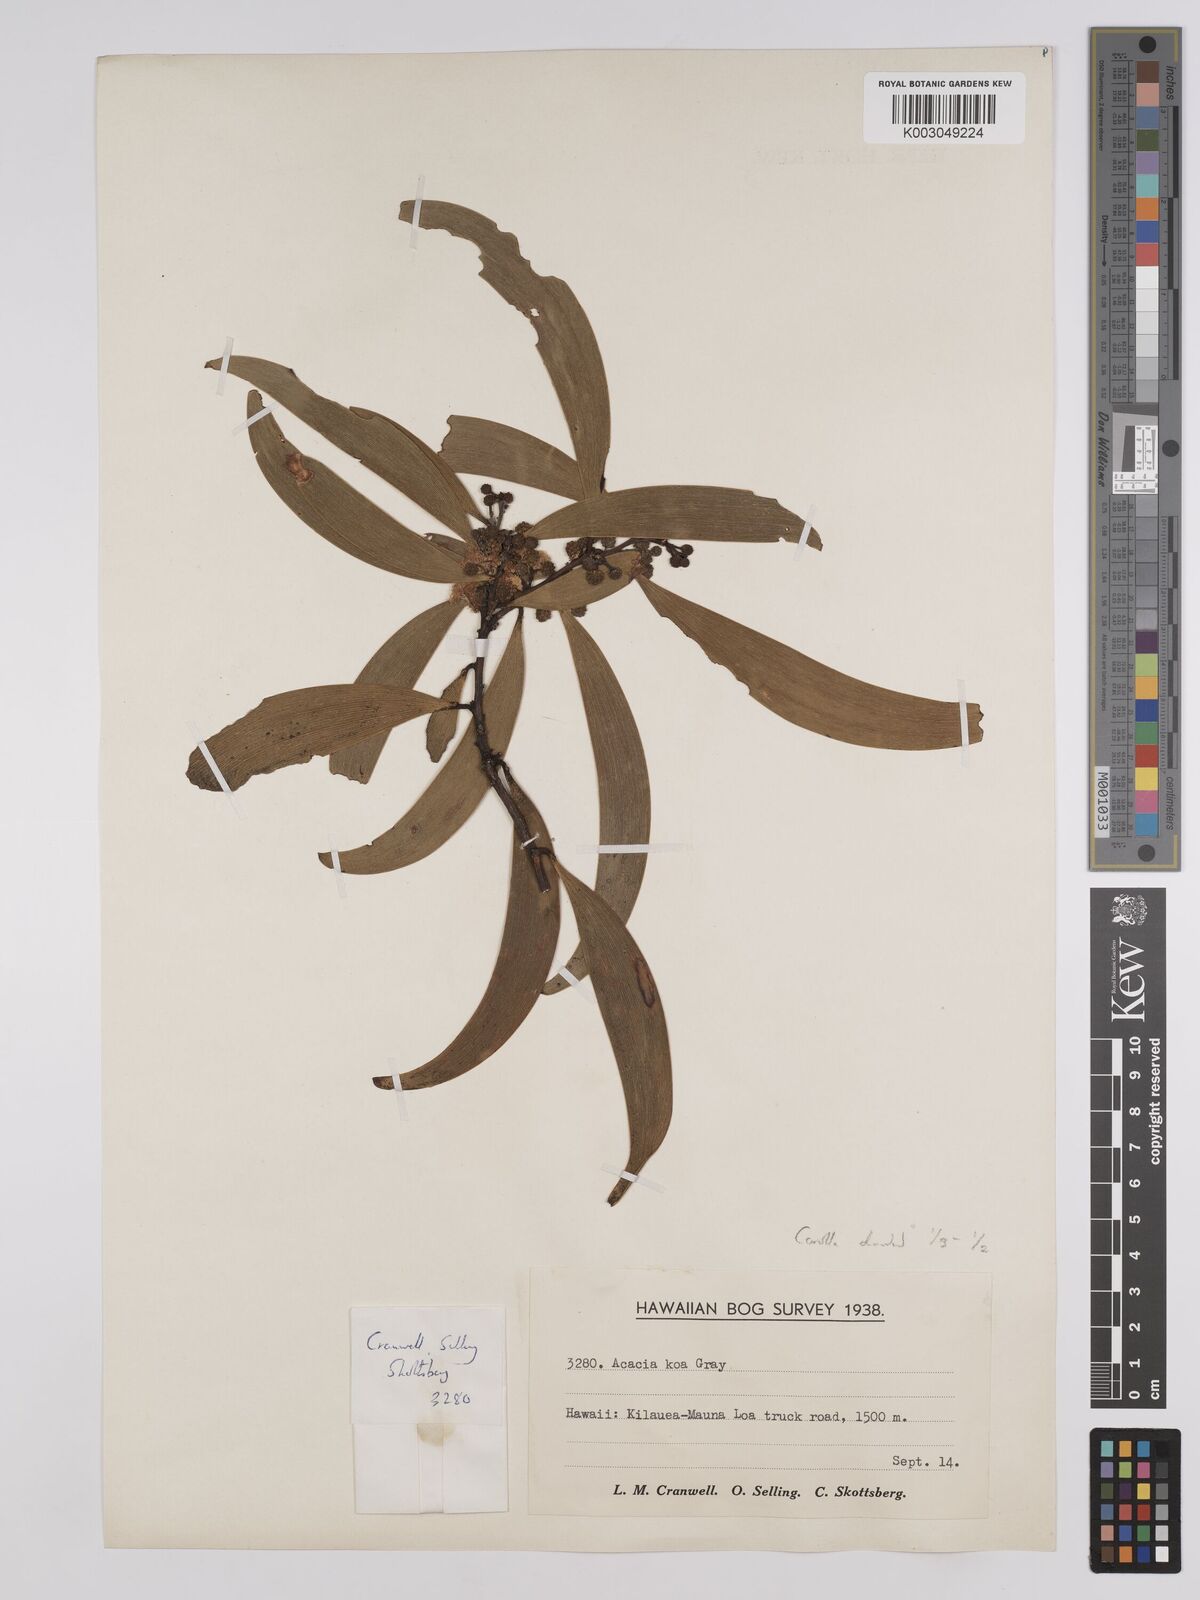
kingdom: Plantae
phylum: Tracheophyta
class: Magnoliopsida
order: Fabales
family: Fabaceae
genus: Acacia
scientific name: Acacia koa
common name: Gray koa
